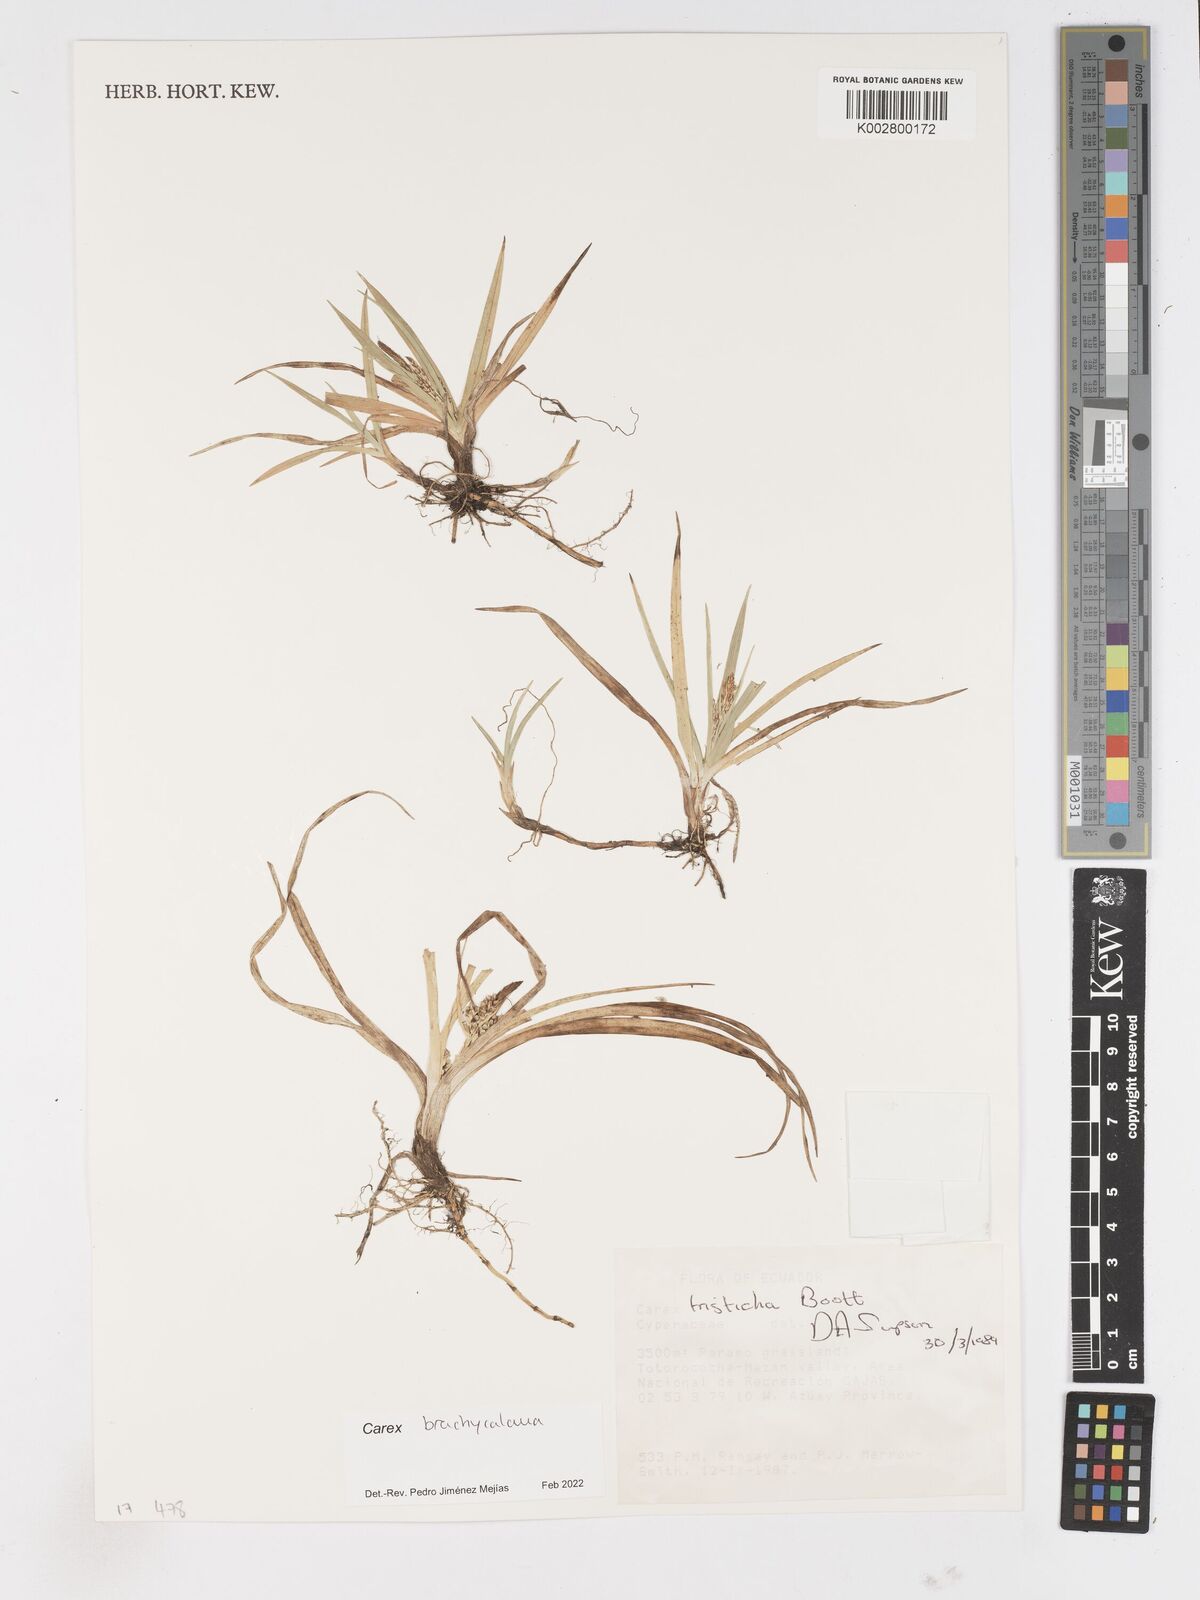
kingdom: Plantae
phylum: Tracheophyta
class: Liliopsida
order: Poales
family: Cyperaceae
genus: Carex
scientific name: Carex brachycalama
